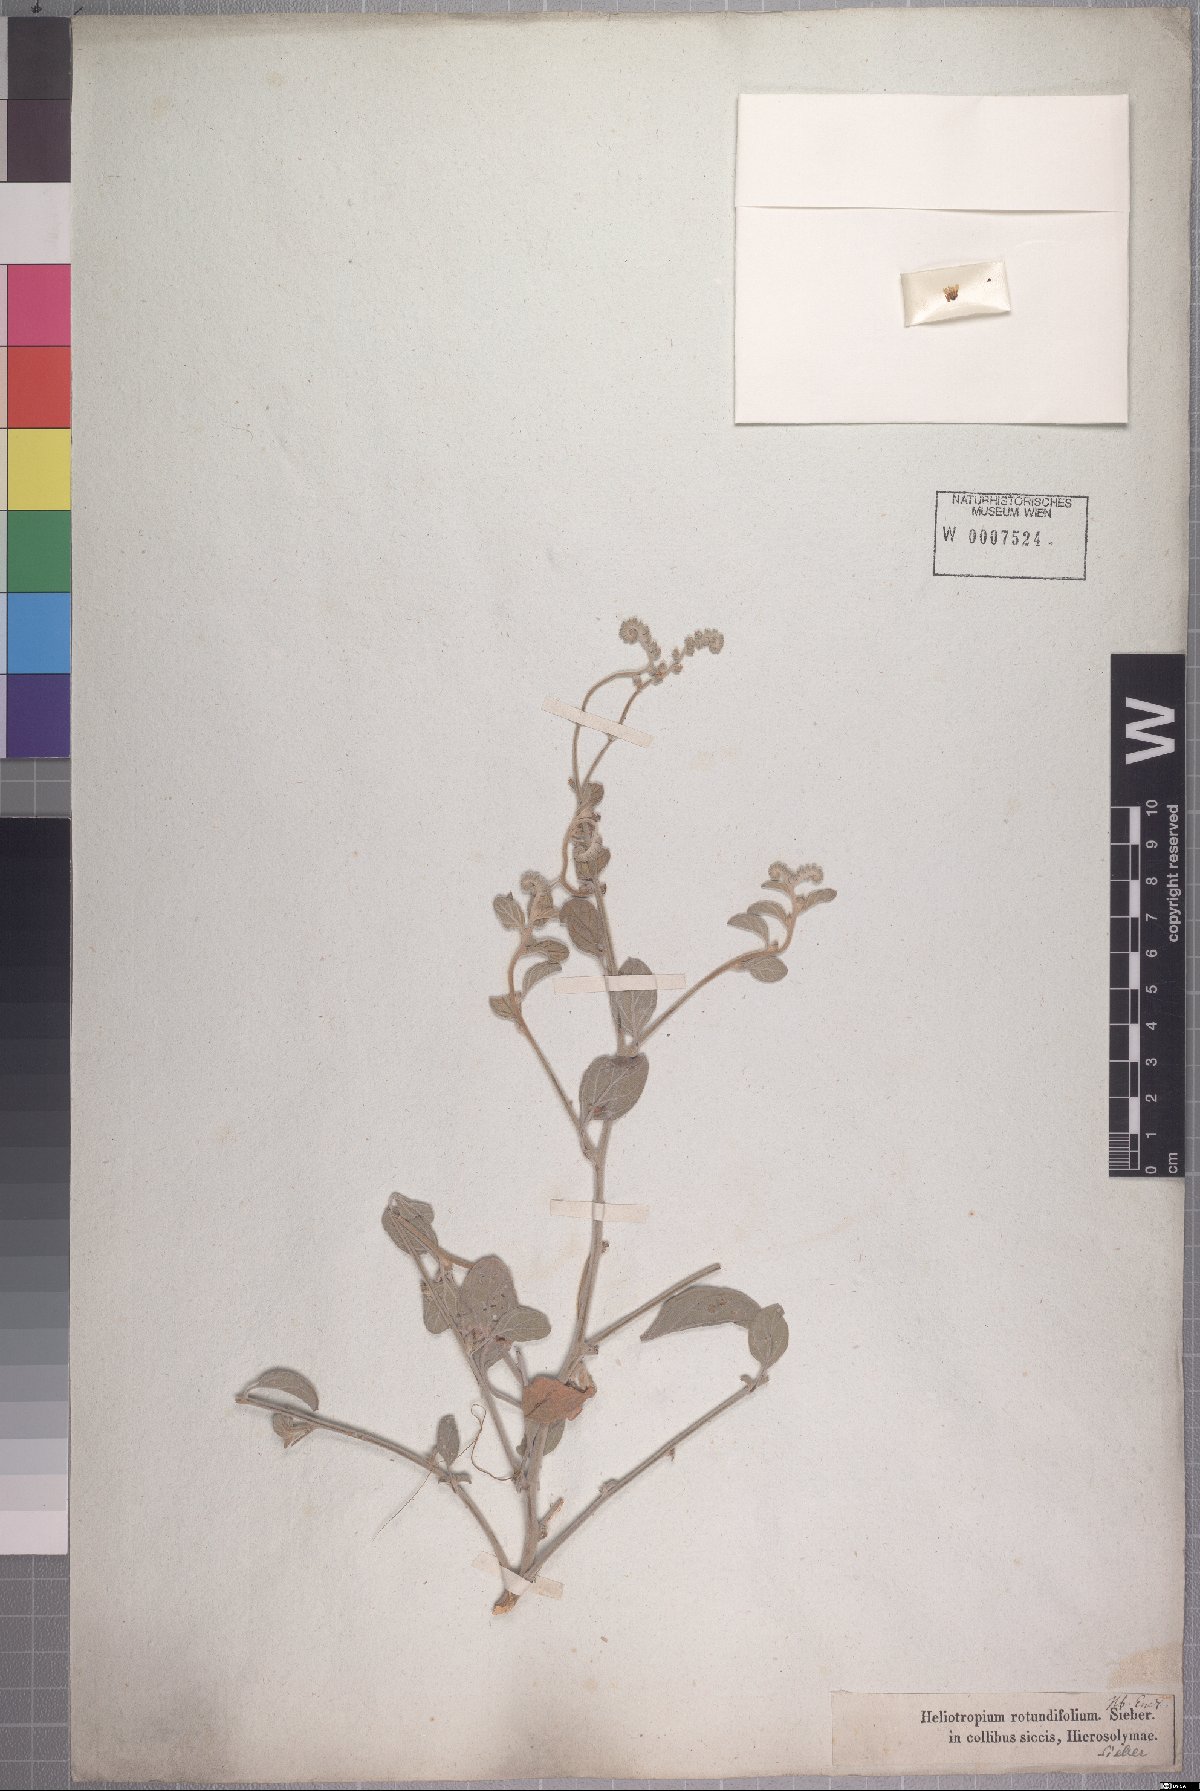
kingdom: Plantae
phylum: Tracheophyta
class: Magnoliopsida
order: Boraginales
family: Heliotropiaceae
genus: Heliotropium
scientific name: Heliotropium rotundifolium
